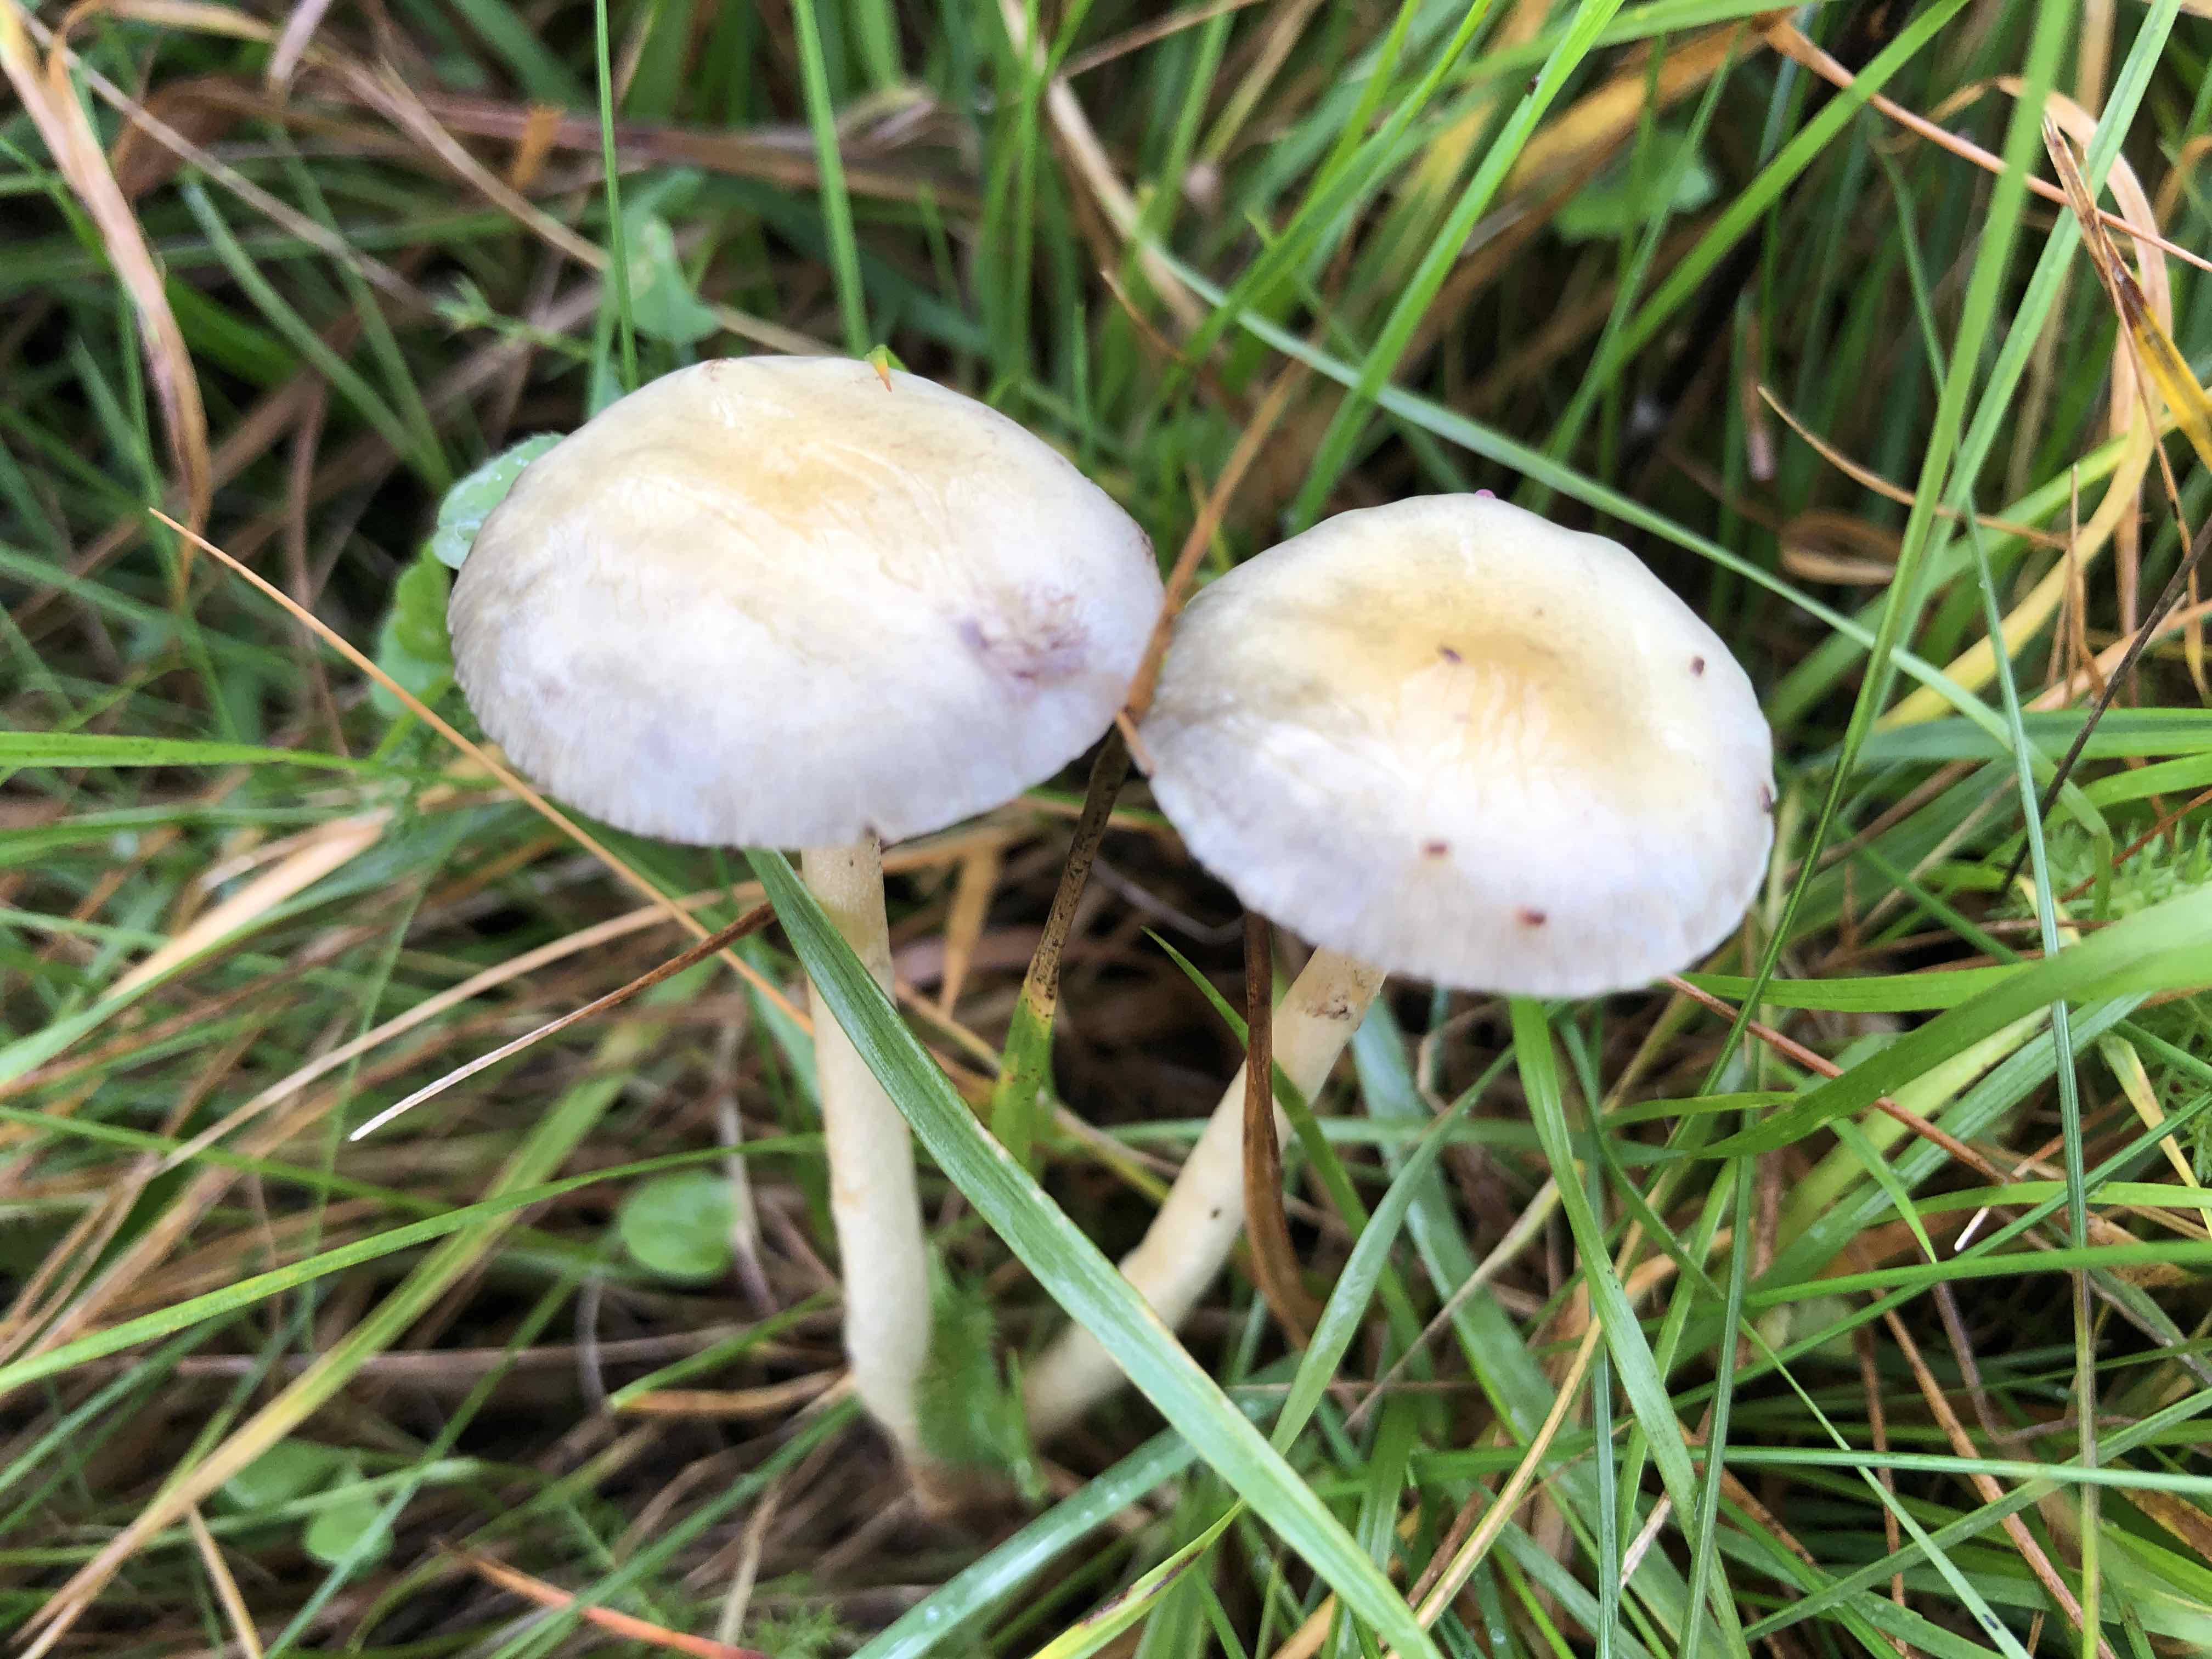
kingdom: Fungi
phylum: Basidiomycota
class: Agaricomycetes
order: Agaricales
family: Strophariaceae
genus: Protostropharia
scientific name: Protostropharia semiglobata
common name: halvkugleformet bredblad
